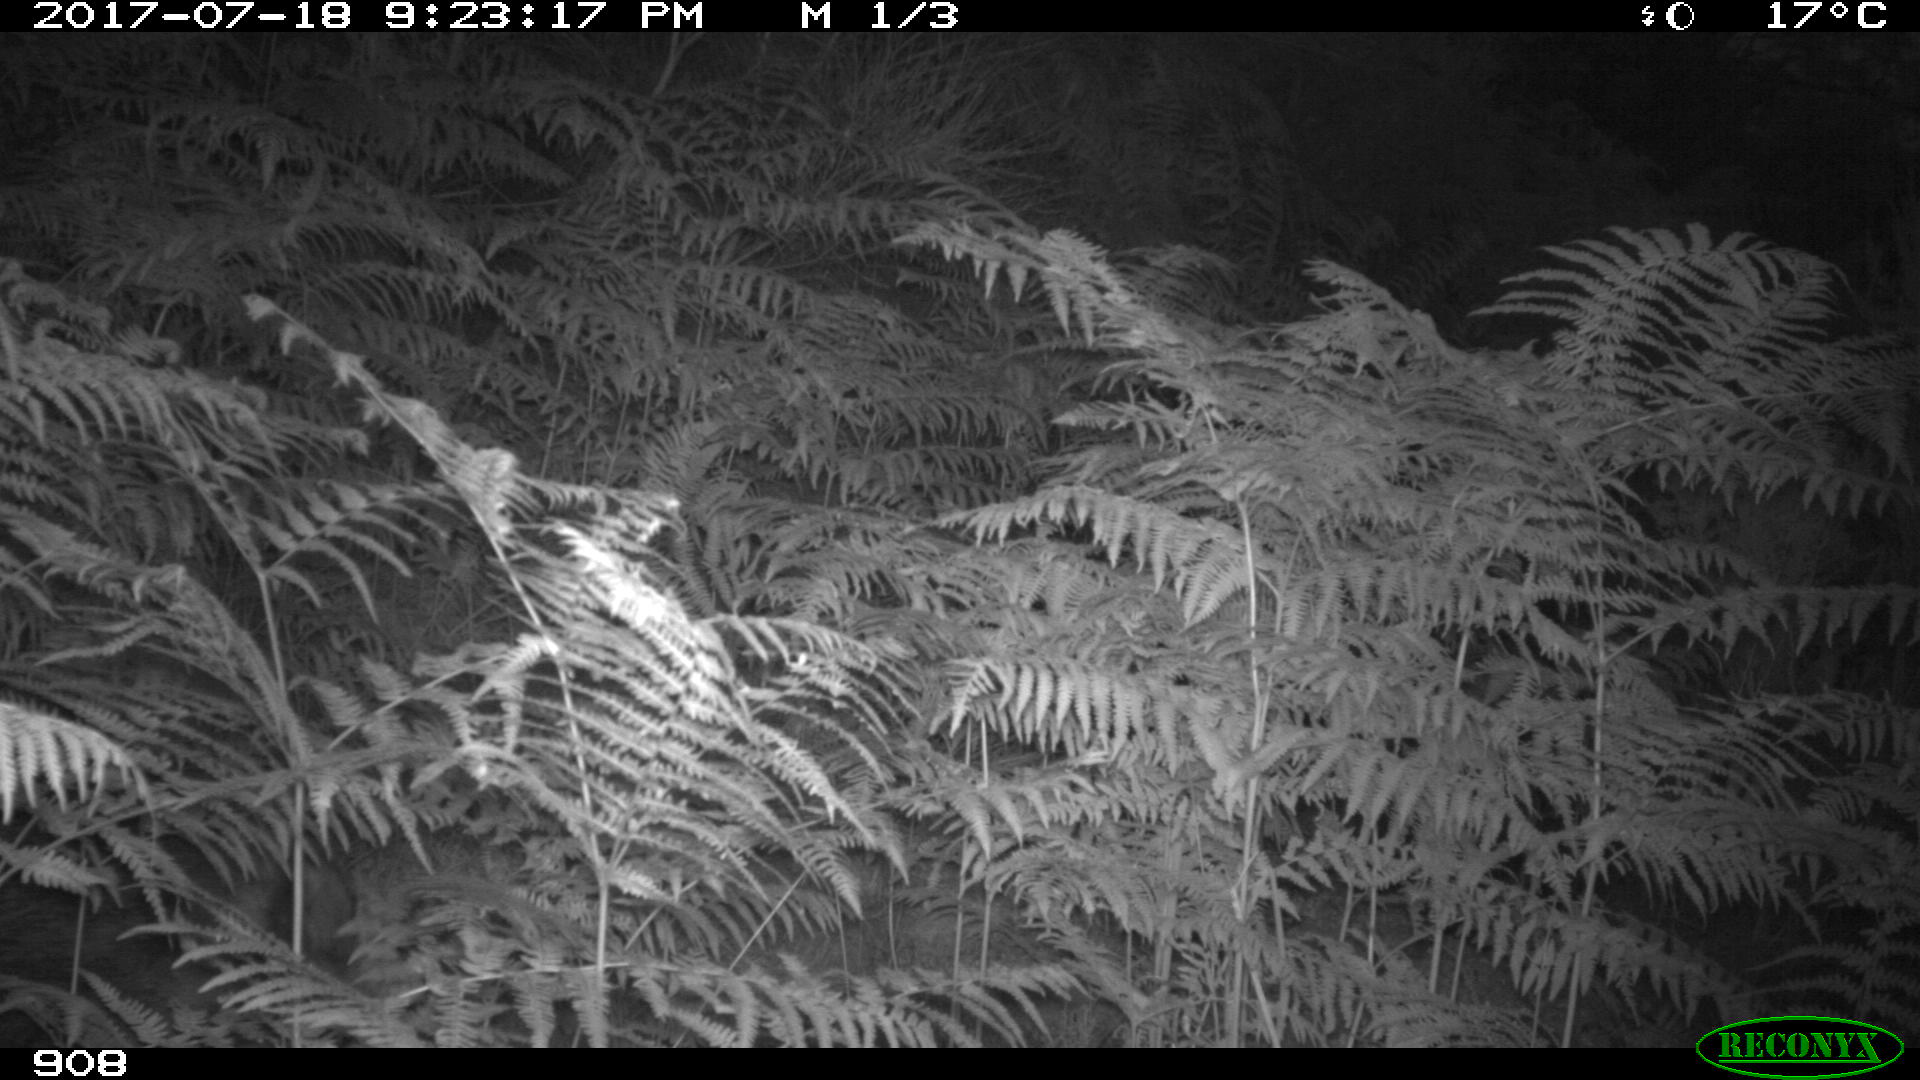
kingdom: Animalia
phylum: Chordata
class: Mammalia
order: Artiodactyla
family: Suidae
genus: Sus
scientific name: Sus scrofa
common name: Wild boar
